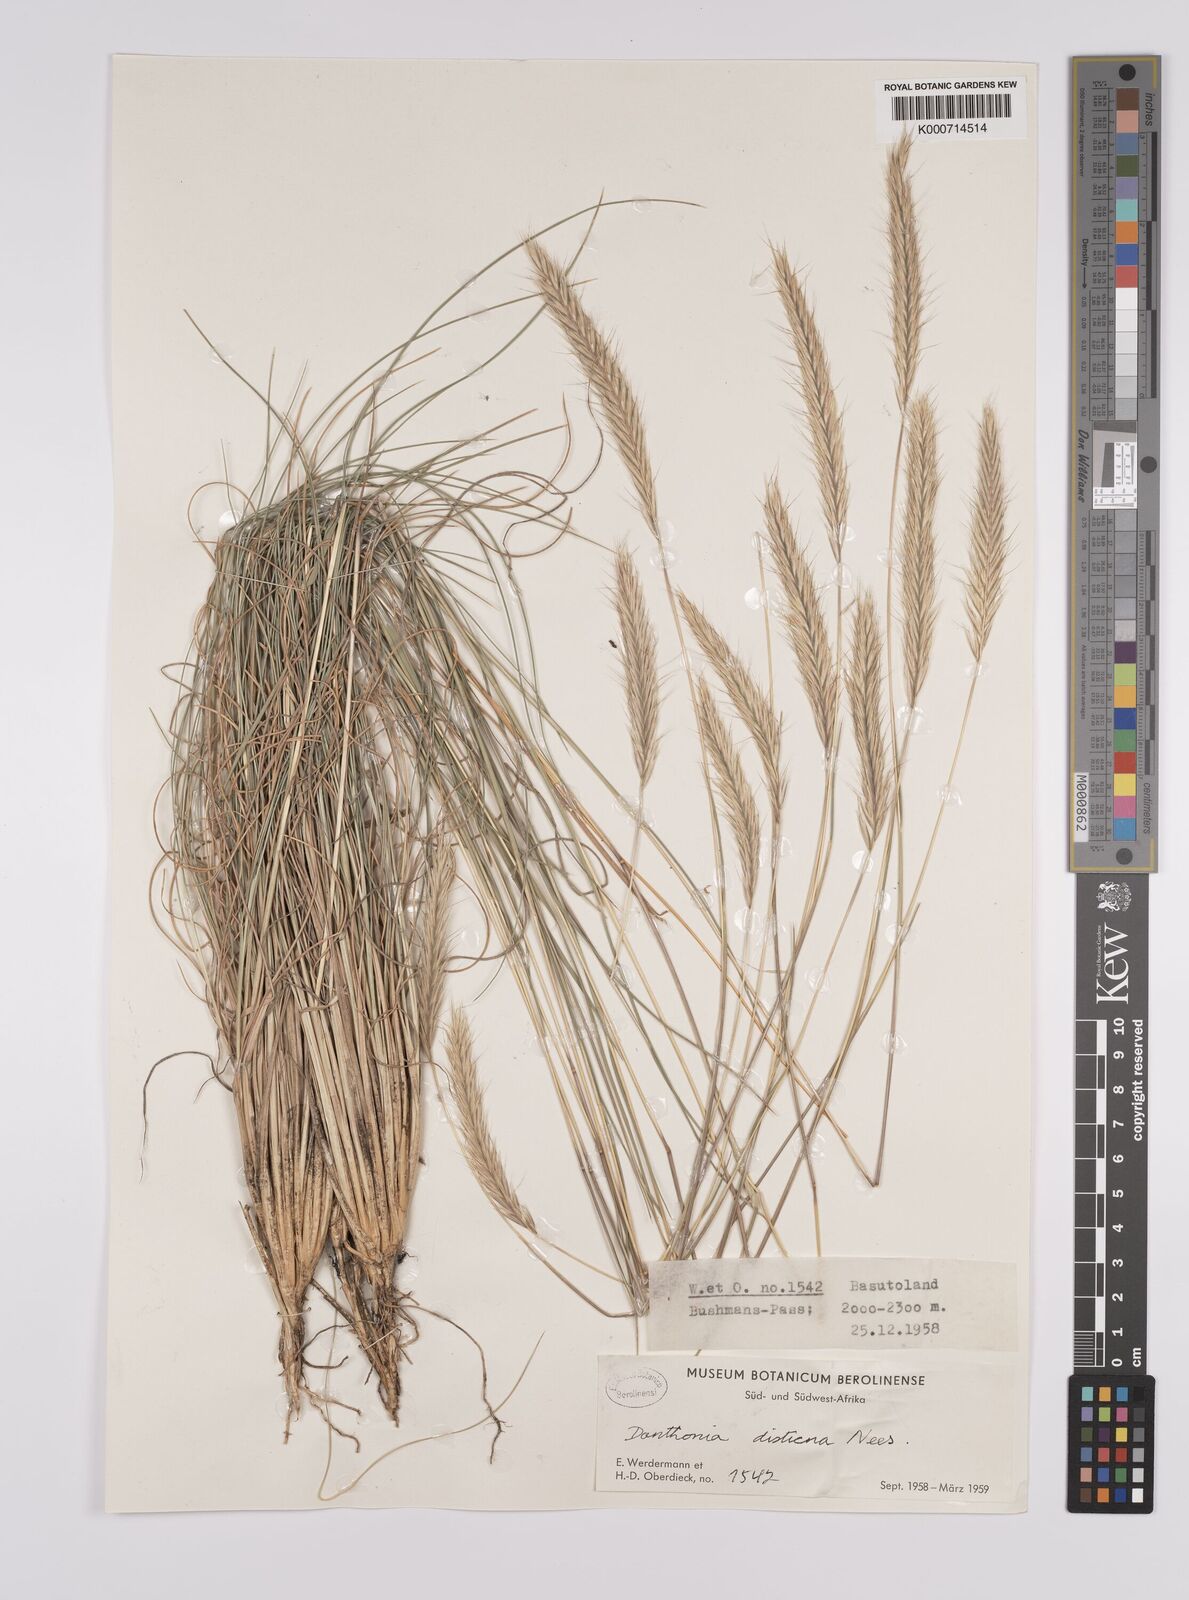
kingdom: Plantae
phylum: Tracheophyta
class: Liliopsida
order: Poales
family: Poaceae
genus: Tenaxia
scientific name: Tenaxia disticha
